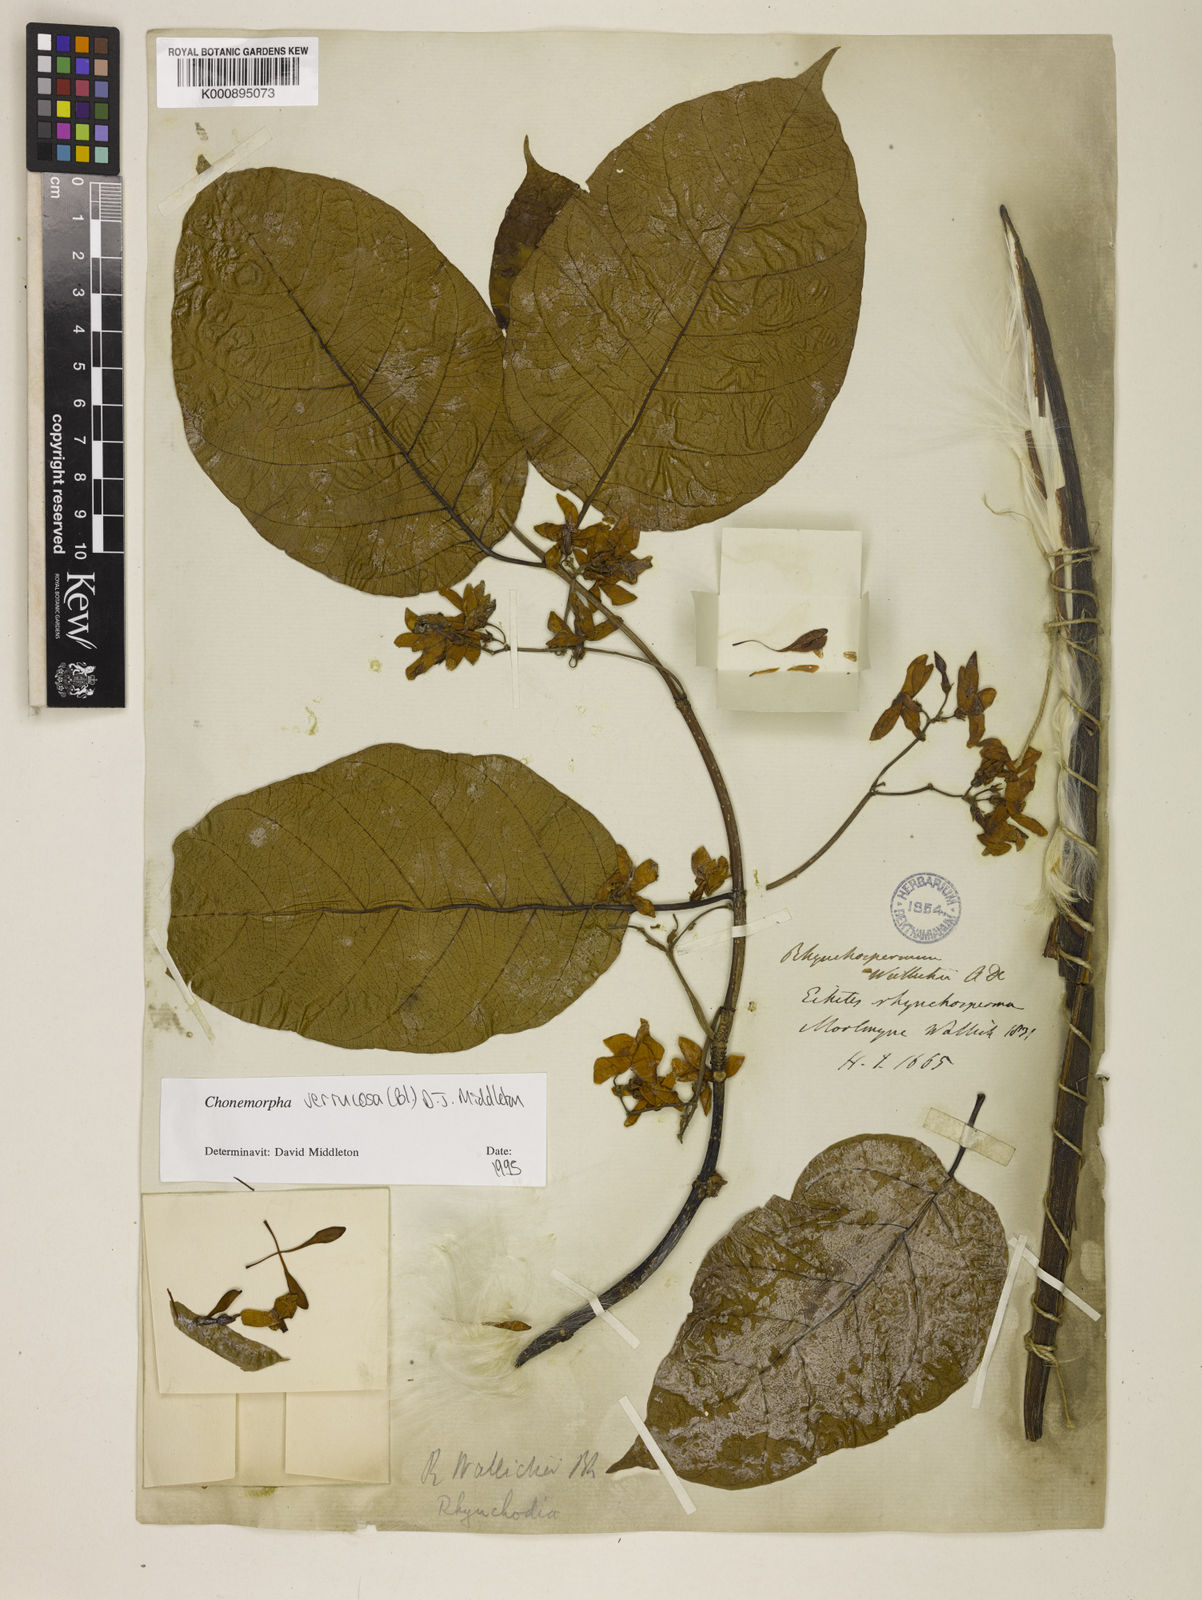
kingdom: Plantae
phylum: Tracheophyta
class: Magnoliopsida
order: Gentianales
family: Apocynaceae
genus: Chonemorpha
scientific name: Chonemorpha verrucosa
